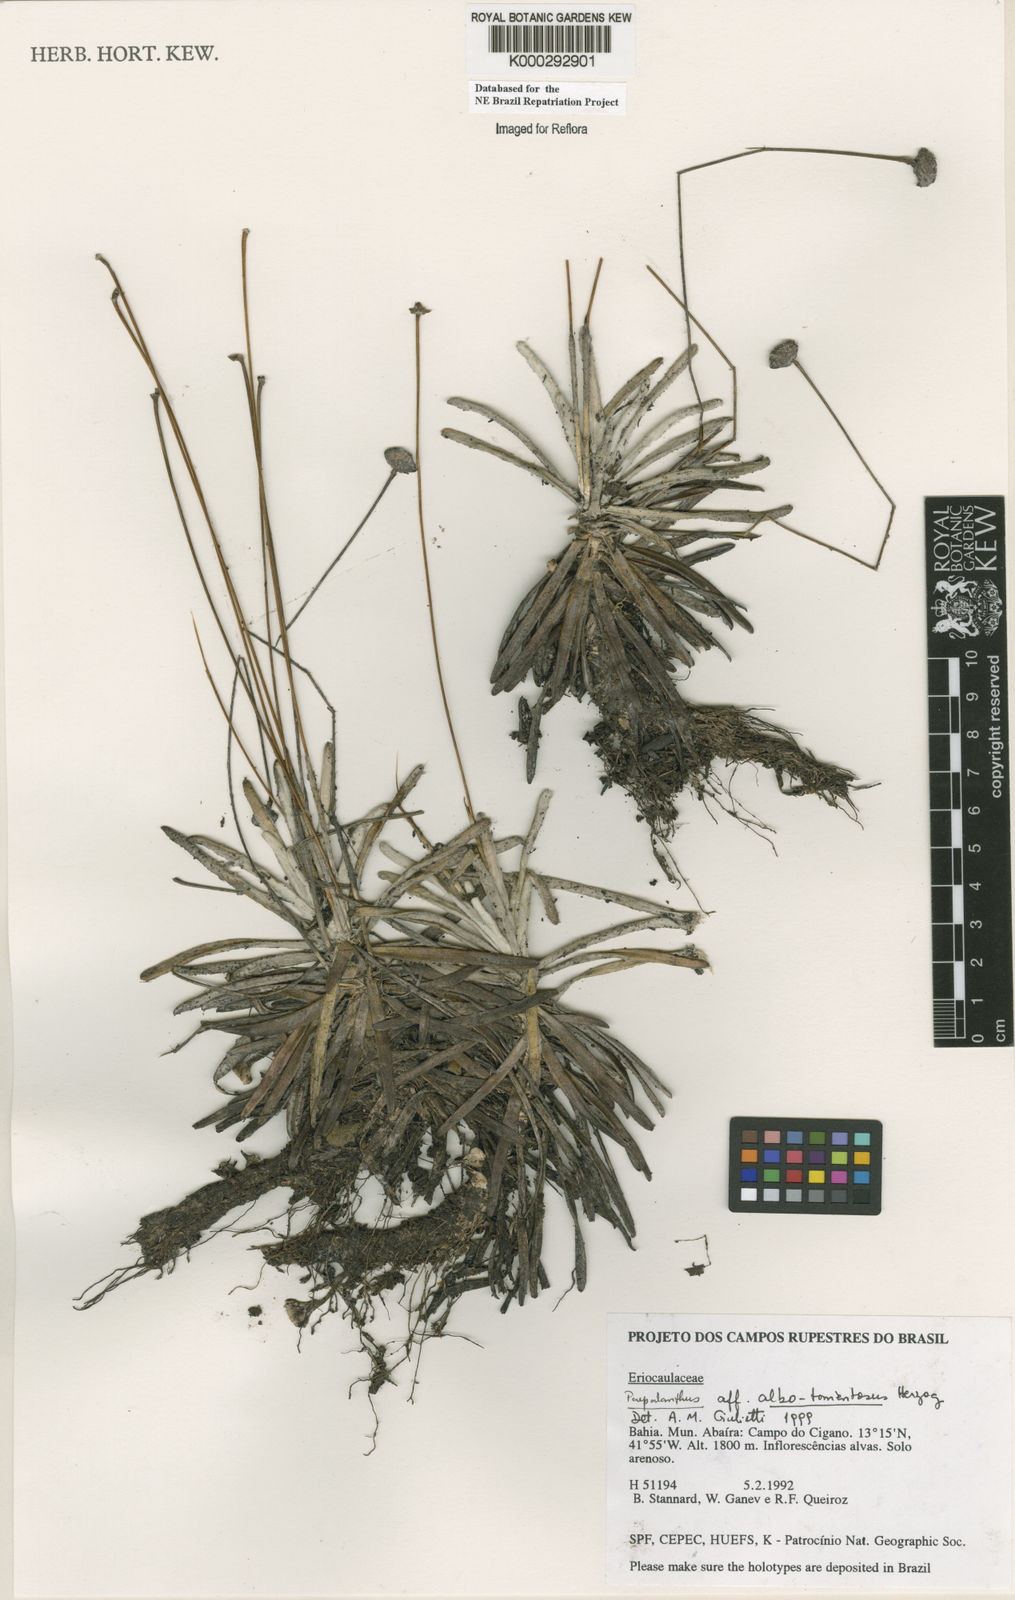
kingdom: Plantae
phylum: Tracheophyta
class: Liliopsida
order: Poales
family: Eriocaulaceae
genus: Paepalanthus
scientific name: Paepalanthus albotomentosus
